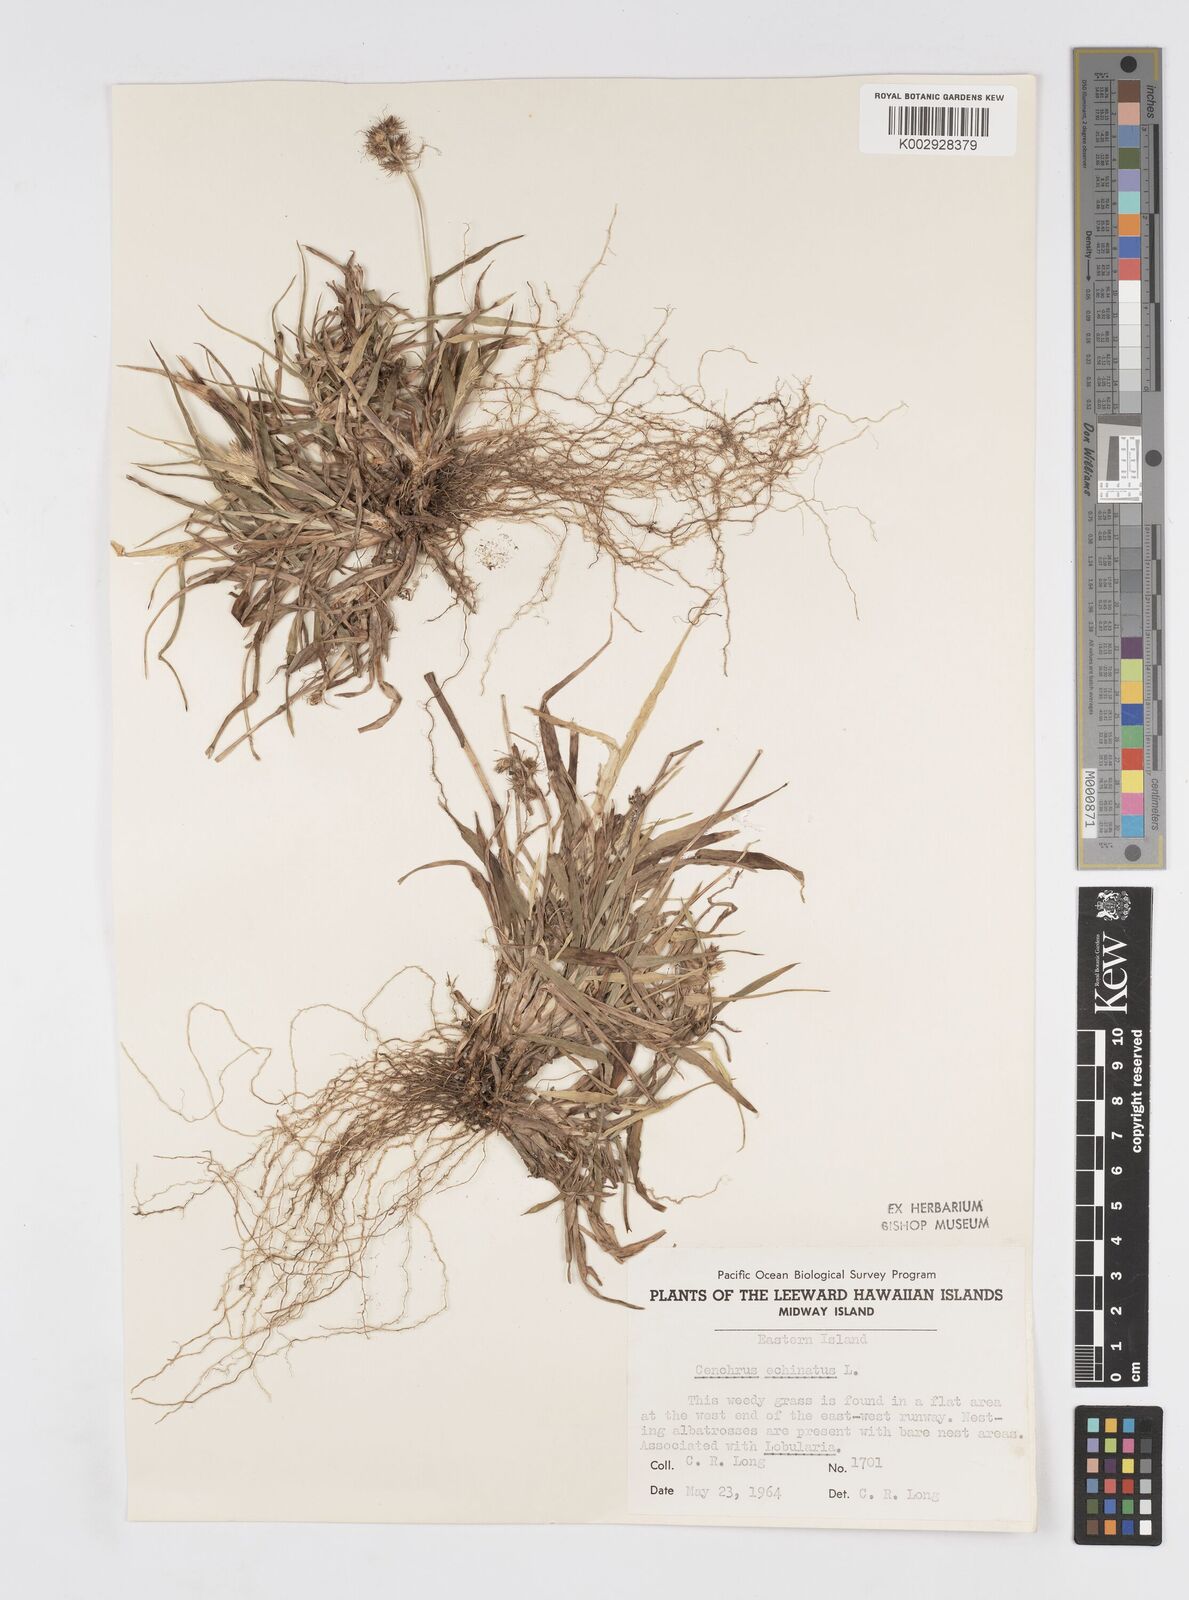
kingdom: Plantae
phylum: Tracheophyta
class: Liliopsida
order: Poales
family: Poaceae
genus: Cenchrus
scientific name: Cenchrus echinatus
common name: Southern sandbur
